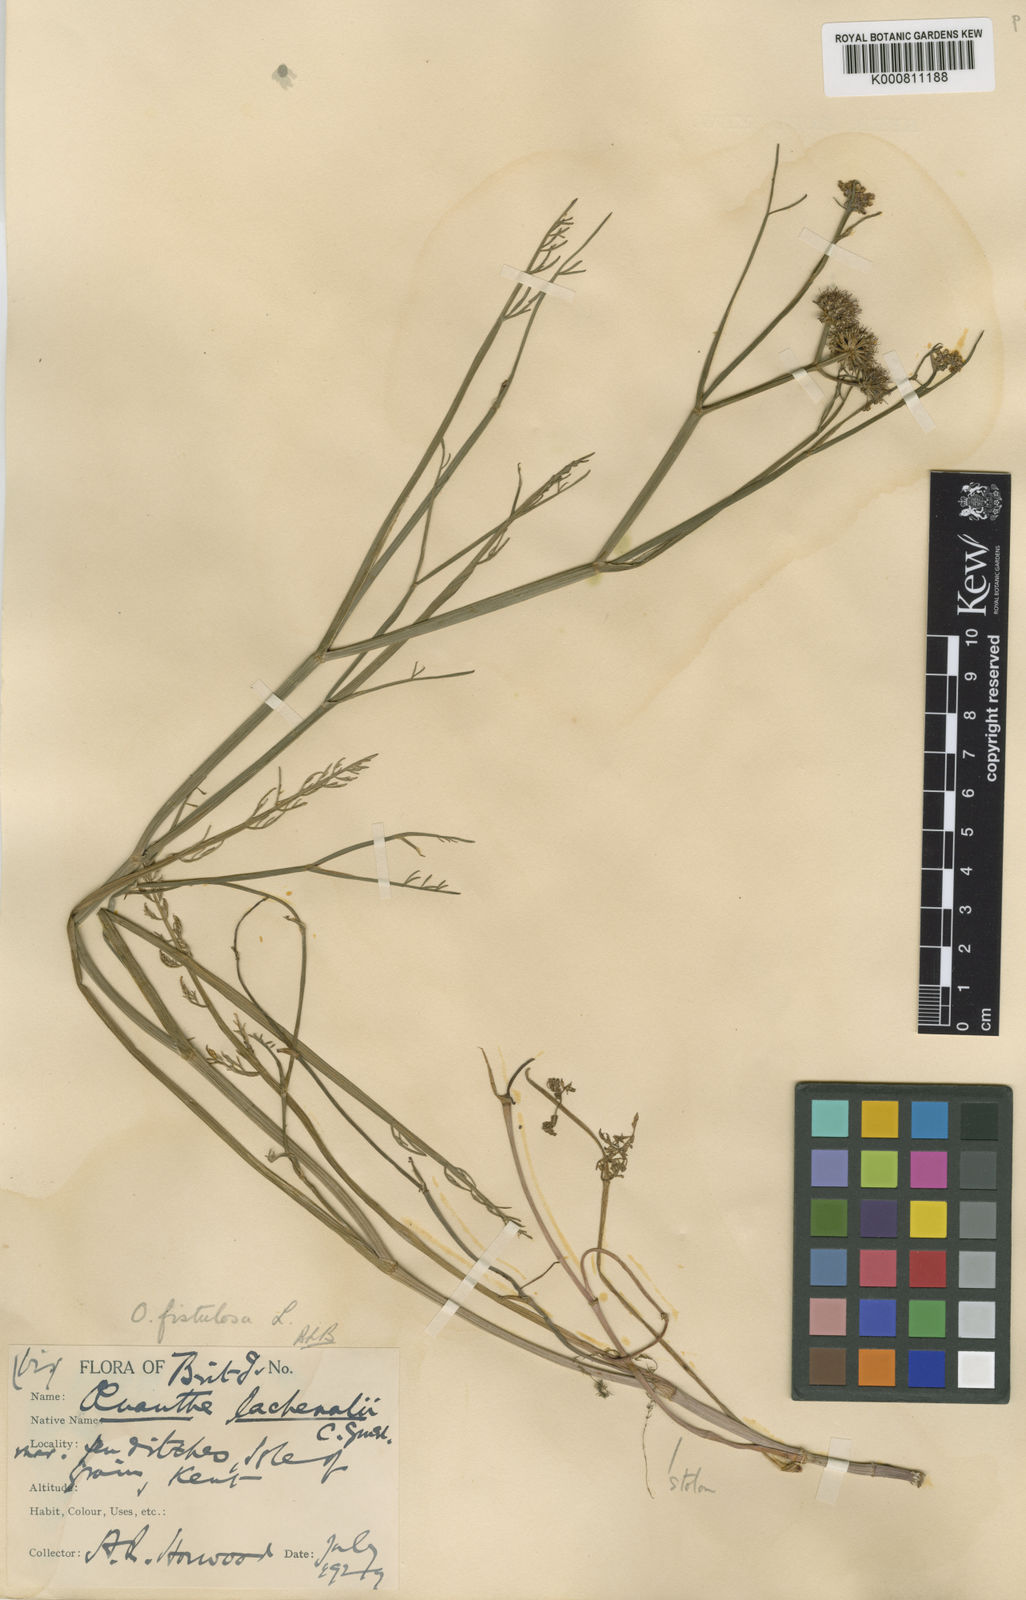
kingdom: Plantae
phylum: Tracheophyta
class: Magnoliopsida
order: Apiales
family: Apiaceae
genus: Oenanthe
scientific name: Oenanthe fistulosa
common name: Tubular water-dropwort
